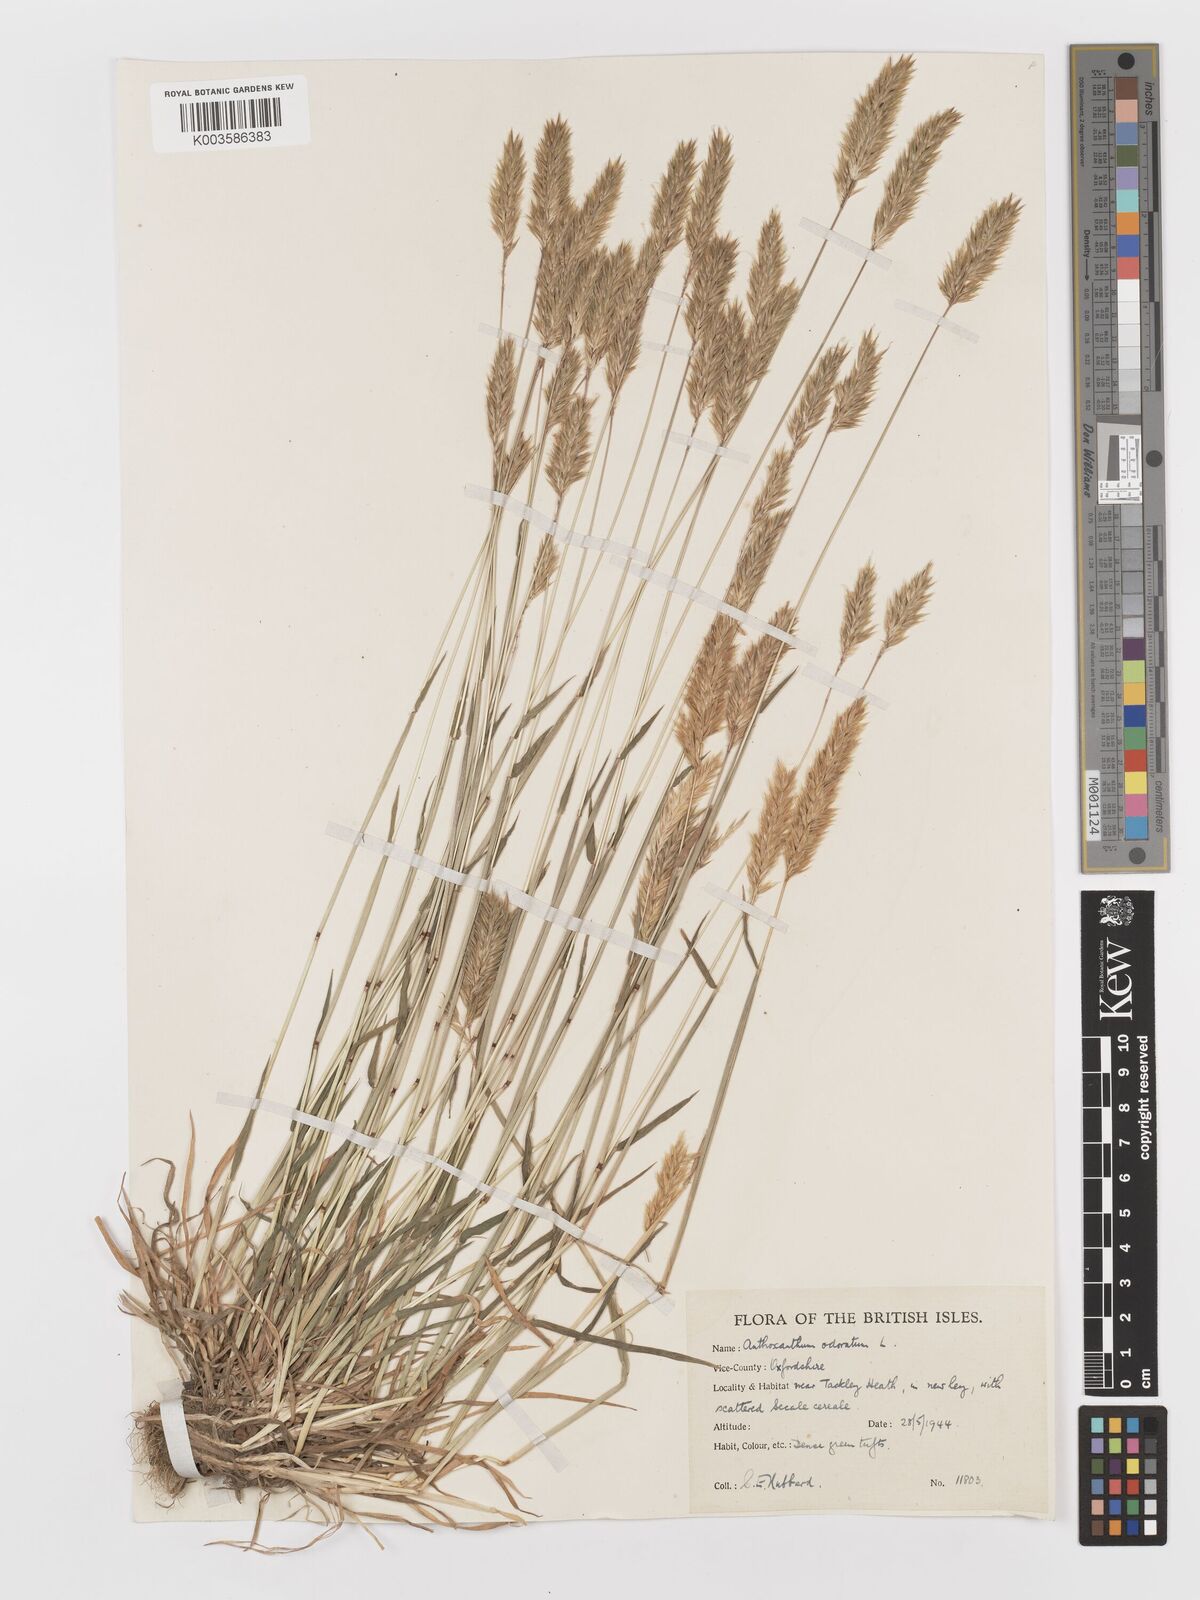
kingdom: Plantae
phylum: Tracheophyta
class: Liliopsida
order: Poales
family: Poaceae
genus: Anthoxanthum
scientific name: Anthoxanthum odoratum
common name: Sweet vernalgrass
